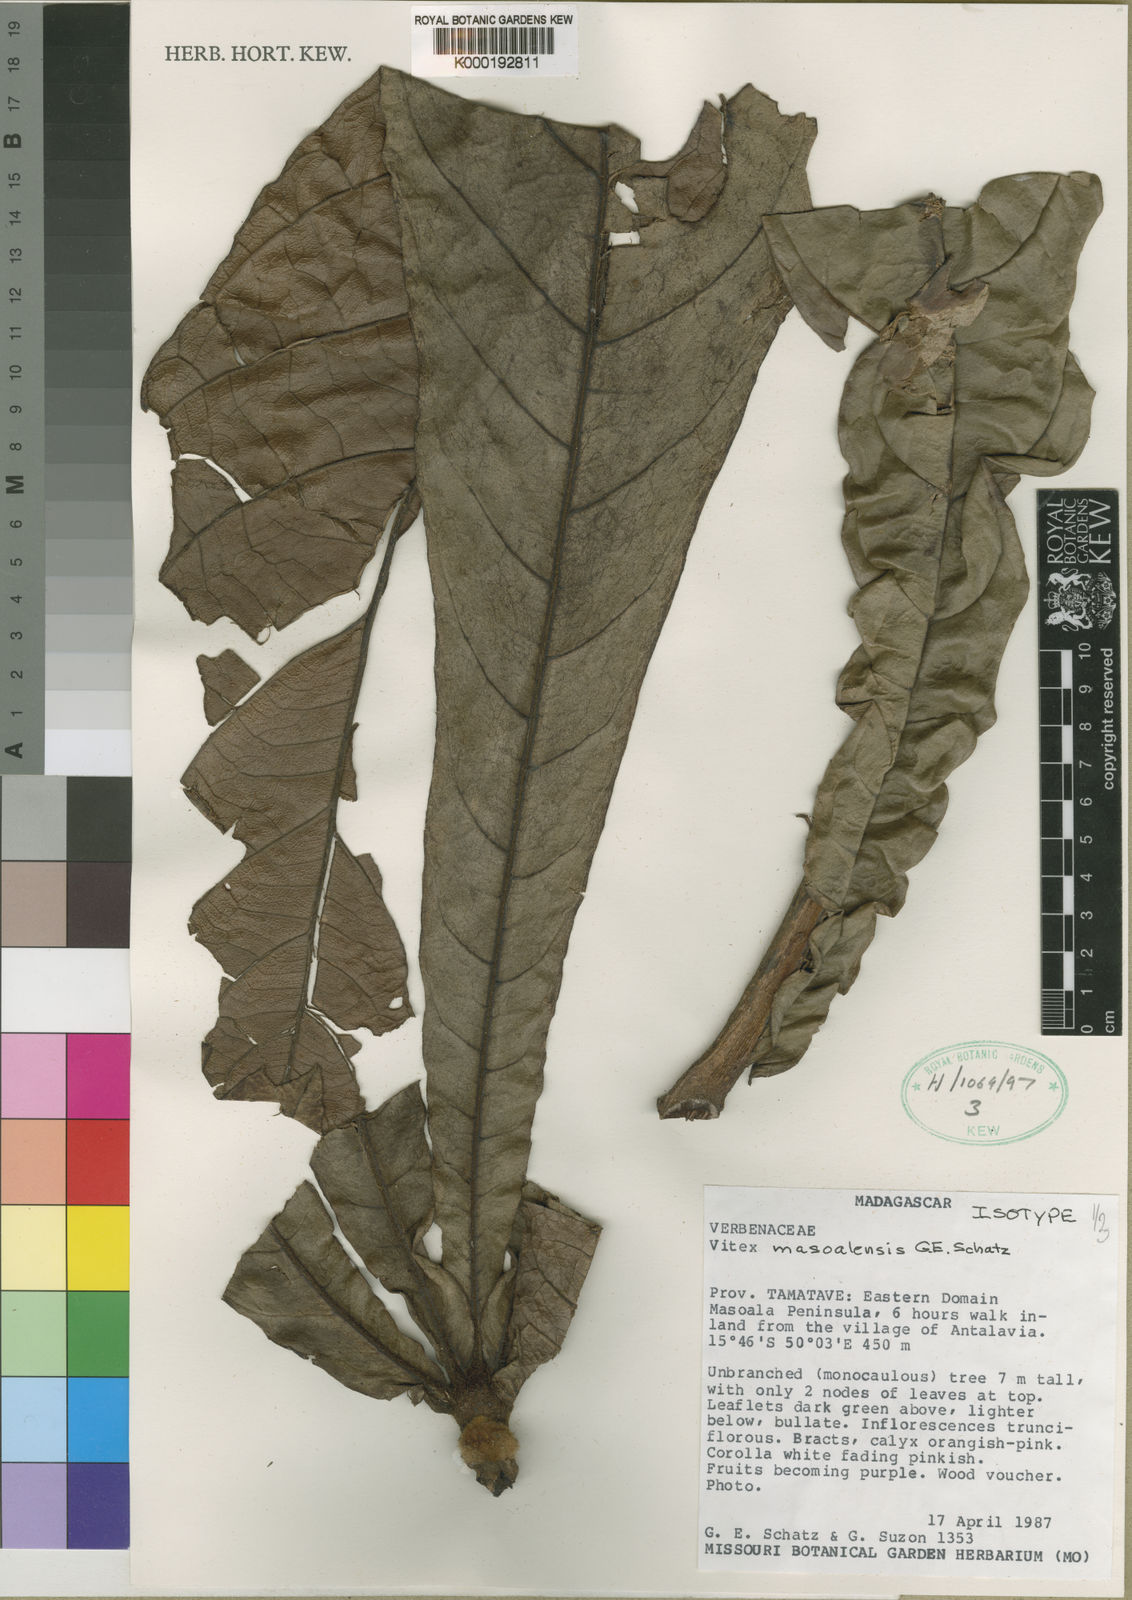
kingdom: Plantae
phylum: Tracheophyta
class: Magnoliopsida
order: Lamiales
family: Lamiaceae
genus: Vitex
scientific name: Vitex masoalensis
